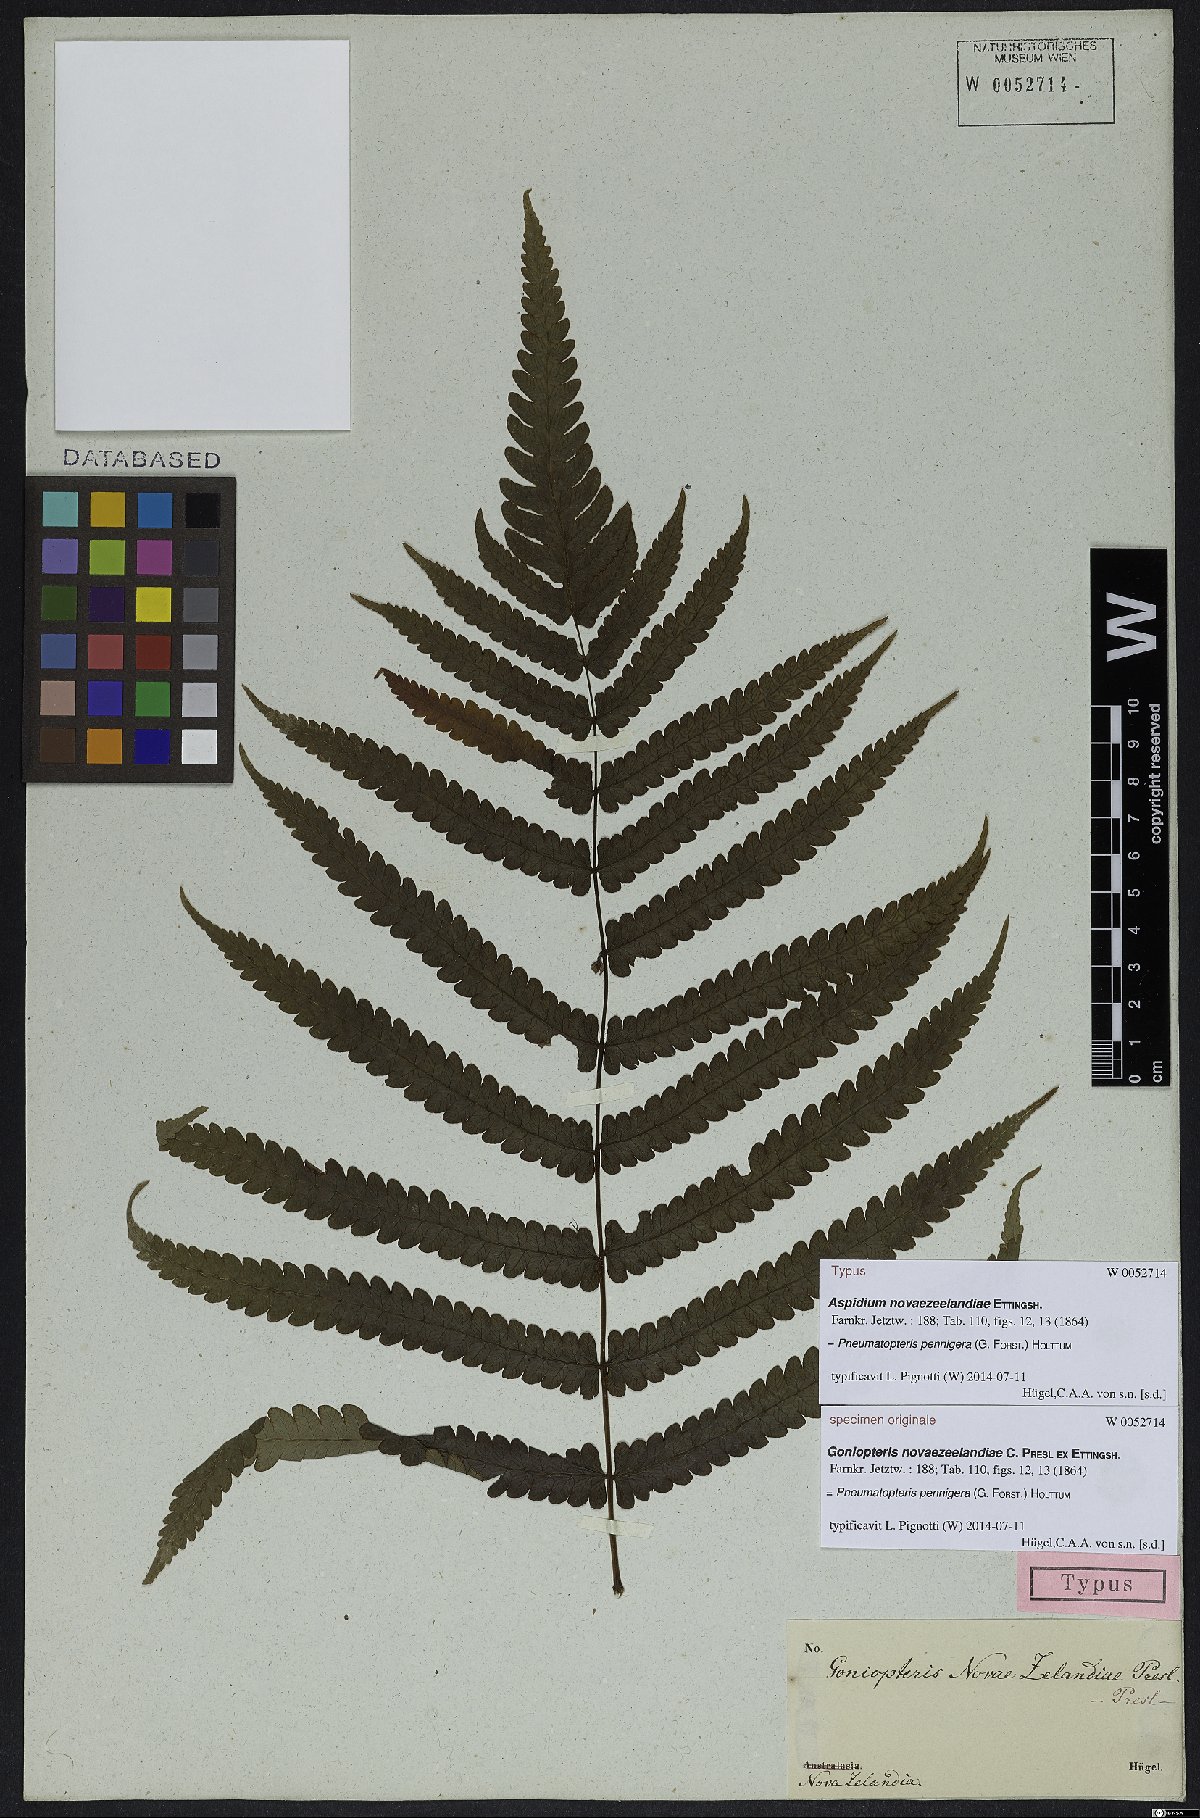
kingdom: Plantae
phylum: Tracheophyta
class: Polypodiopsida
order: Polypodiales
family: Thelypteridaceae
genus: Pakau
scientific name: Pakau pennigera
